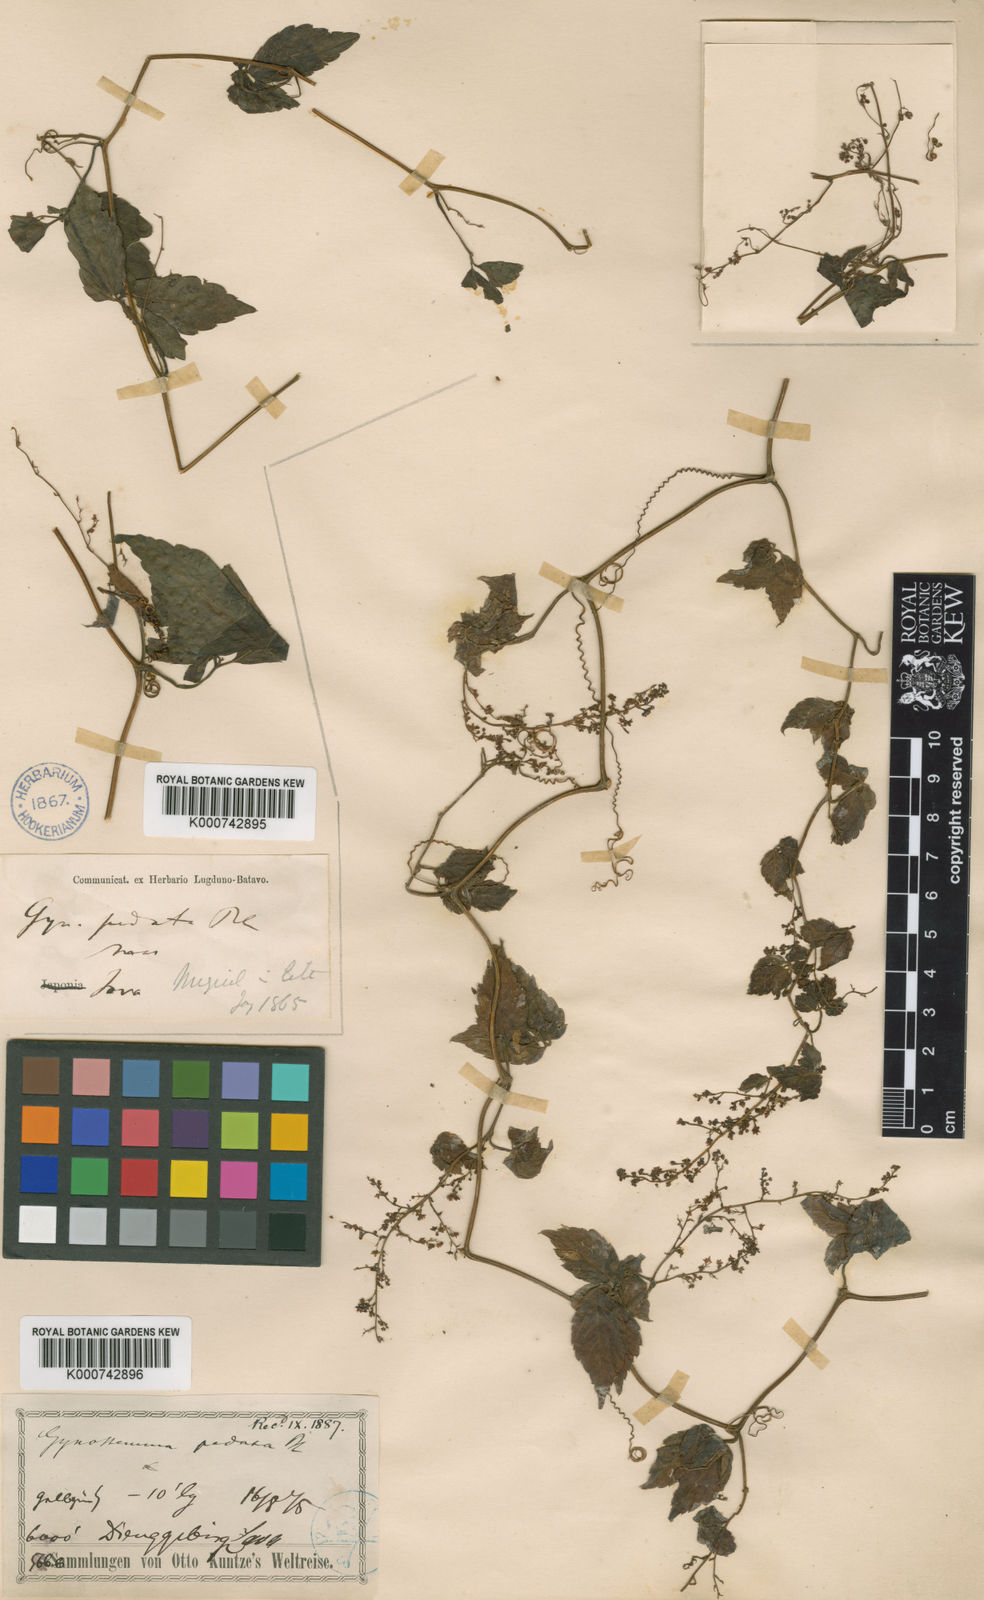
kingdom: Plantae
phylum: Tracheophyta
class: Magnoliopsida
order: Cucurbitales
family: Cucurbitaceae
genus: Gynostemma
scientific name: Gynostemma pentaphyllum
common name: Gynostemma
